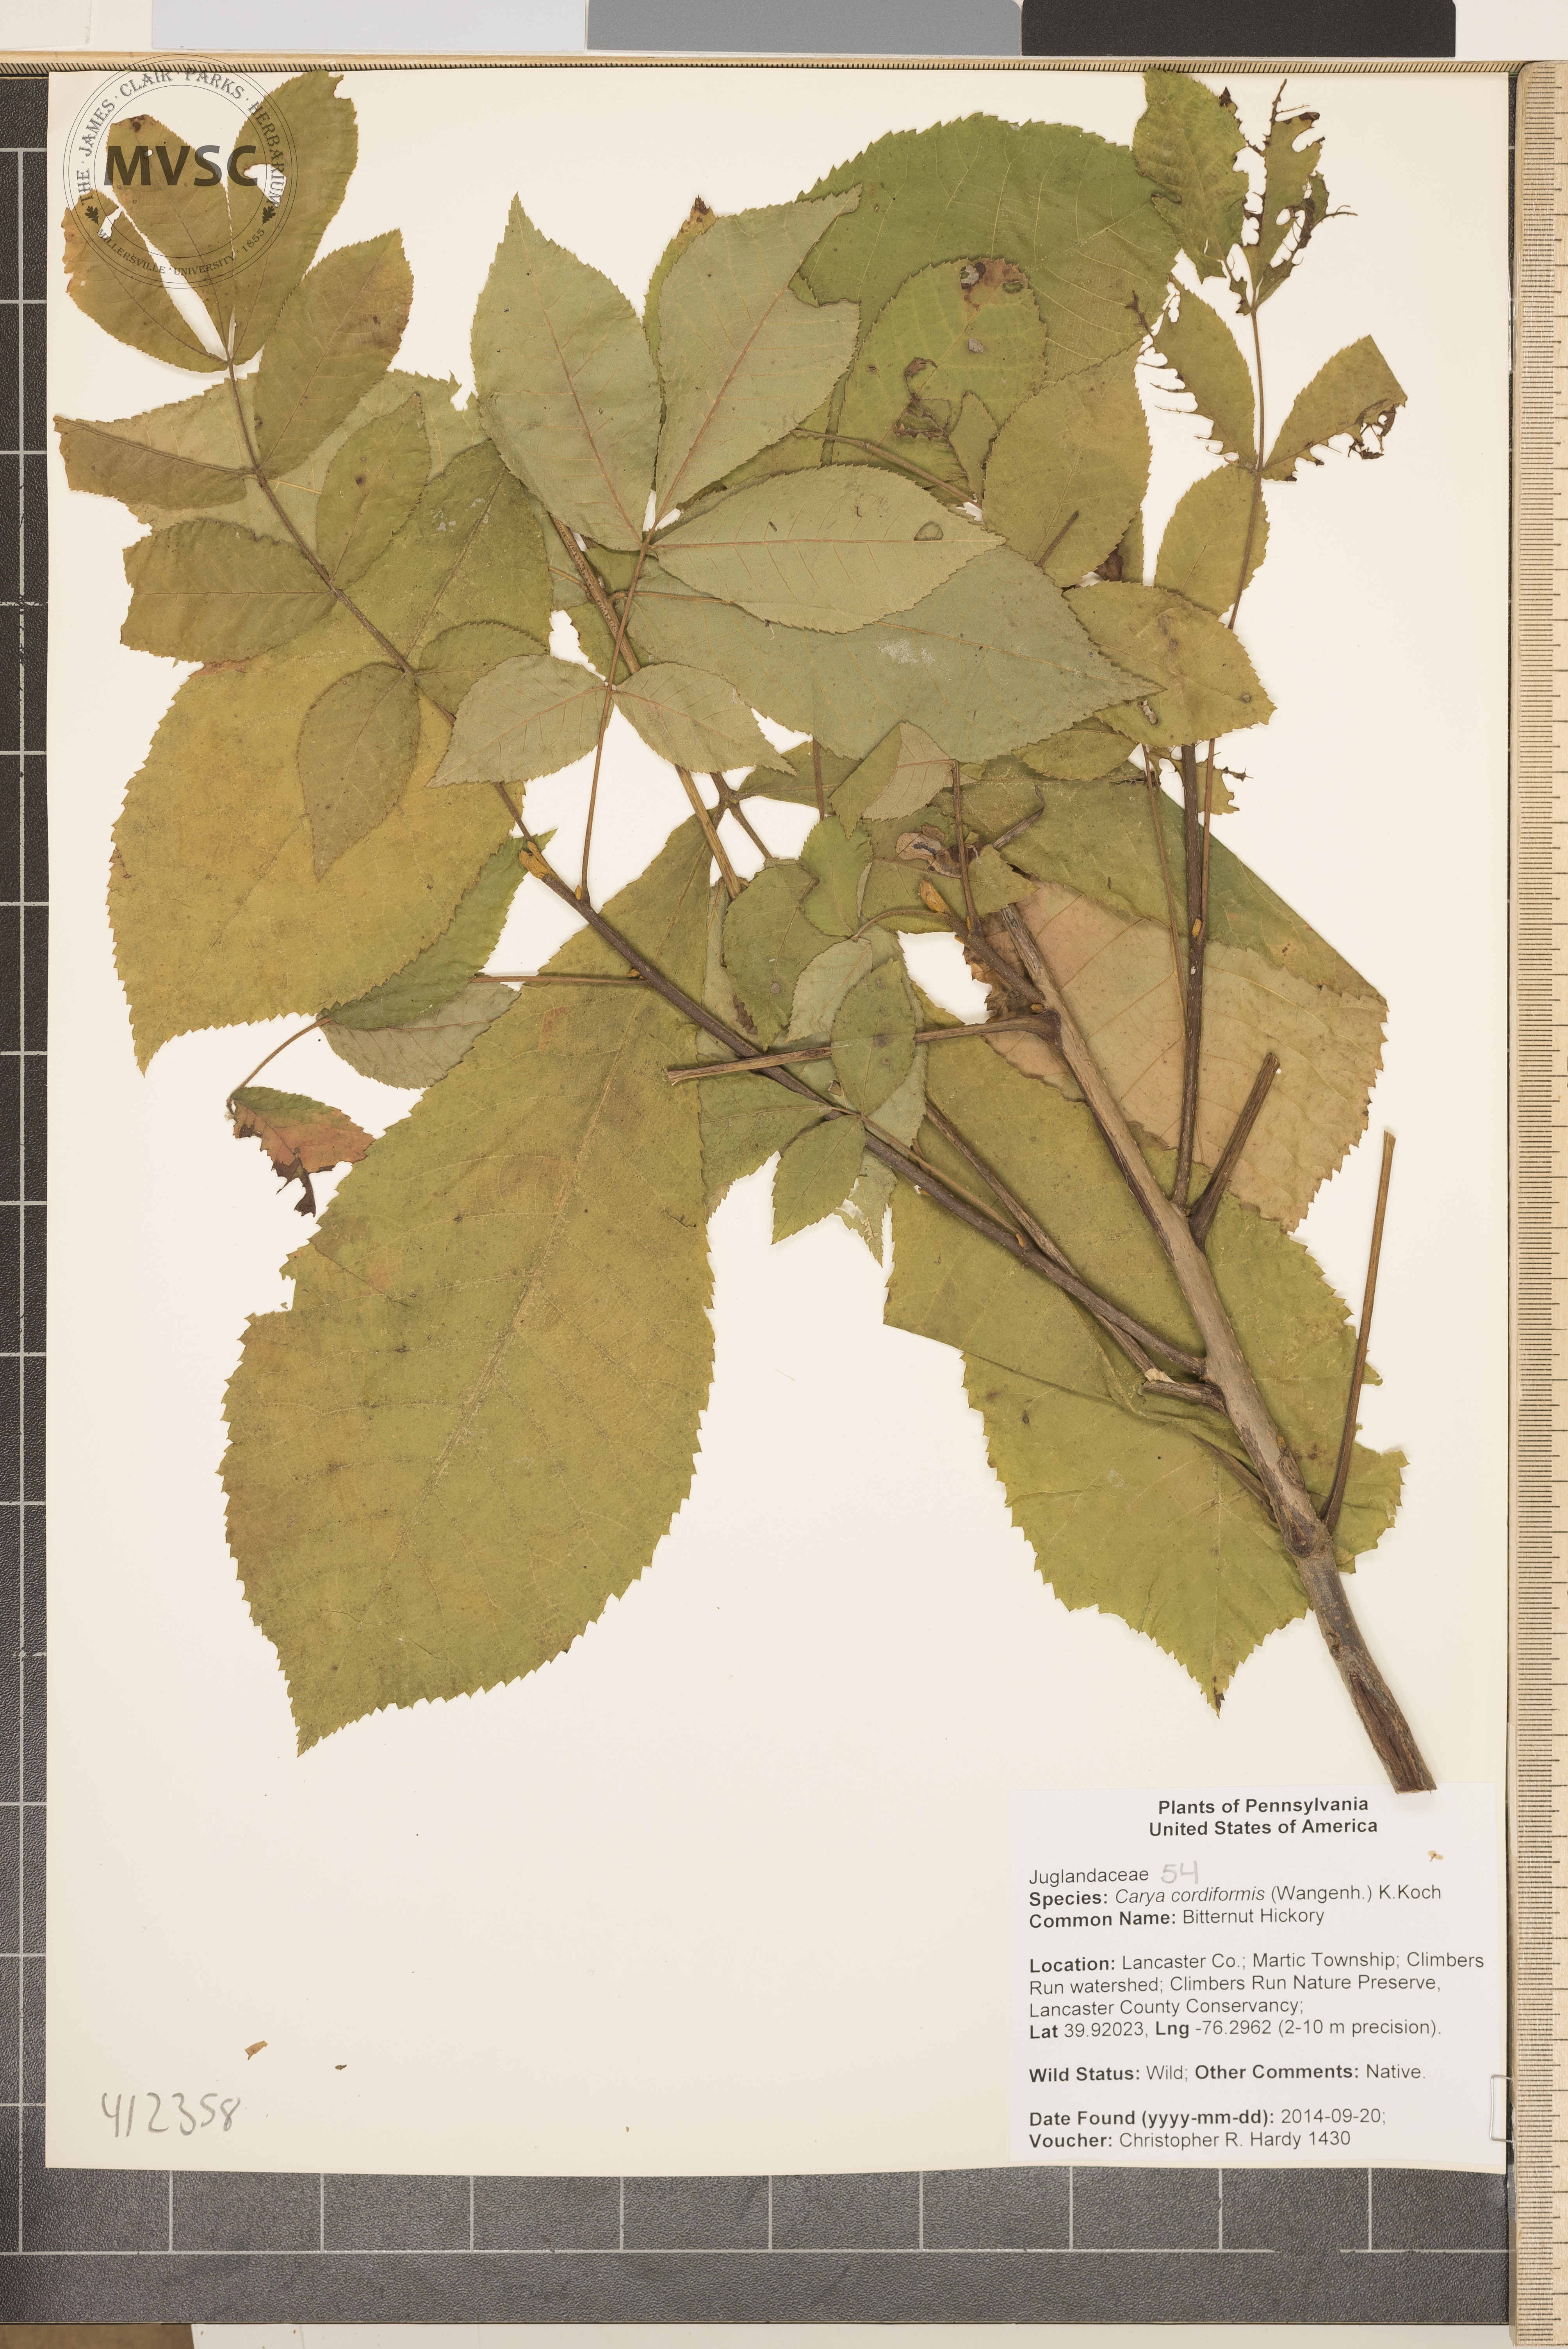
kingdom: Plantae
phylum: Tracheophyta
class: Magnoliopsida
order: Fagales
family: Juglandaceae
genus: Carya
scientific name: Carya cordiformis
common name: bitternut Hickory
